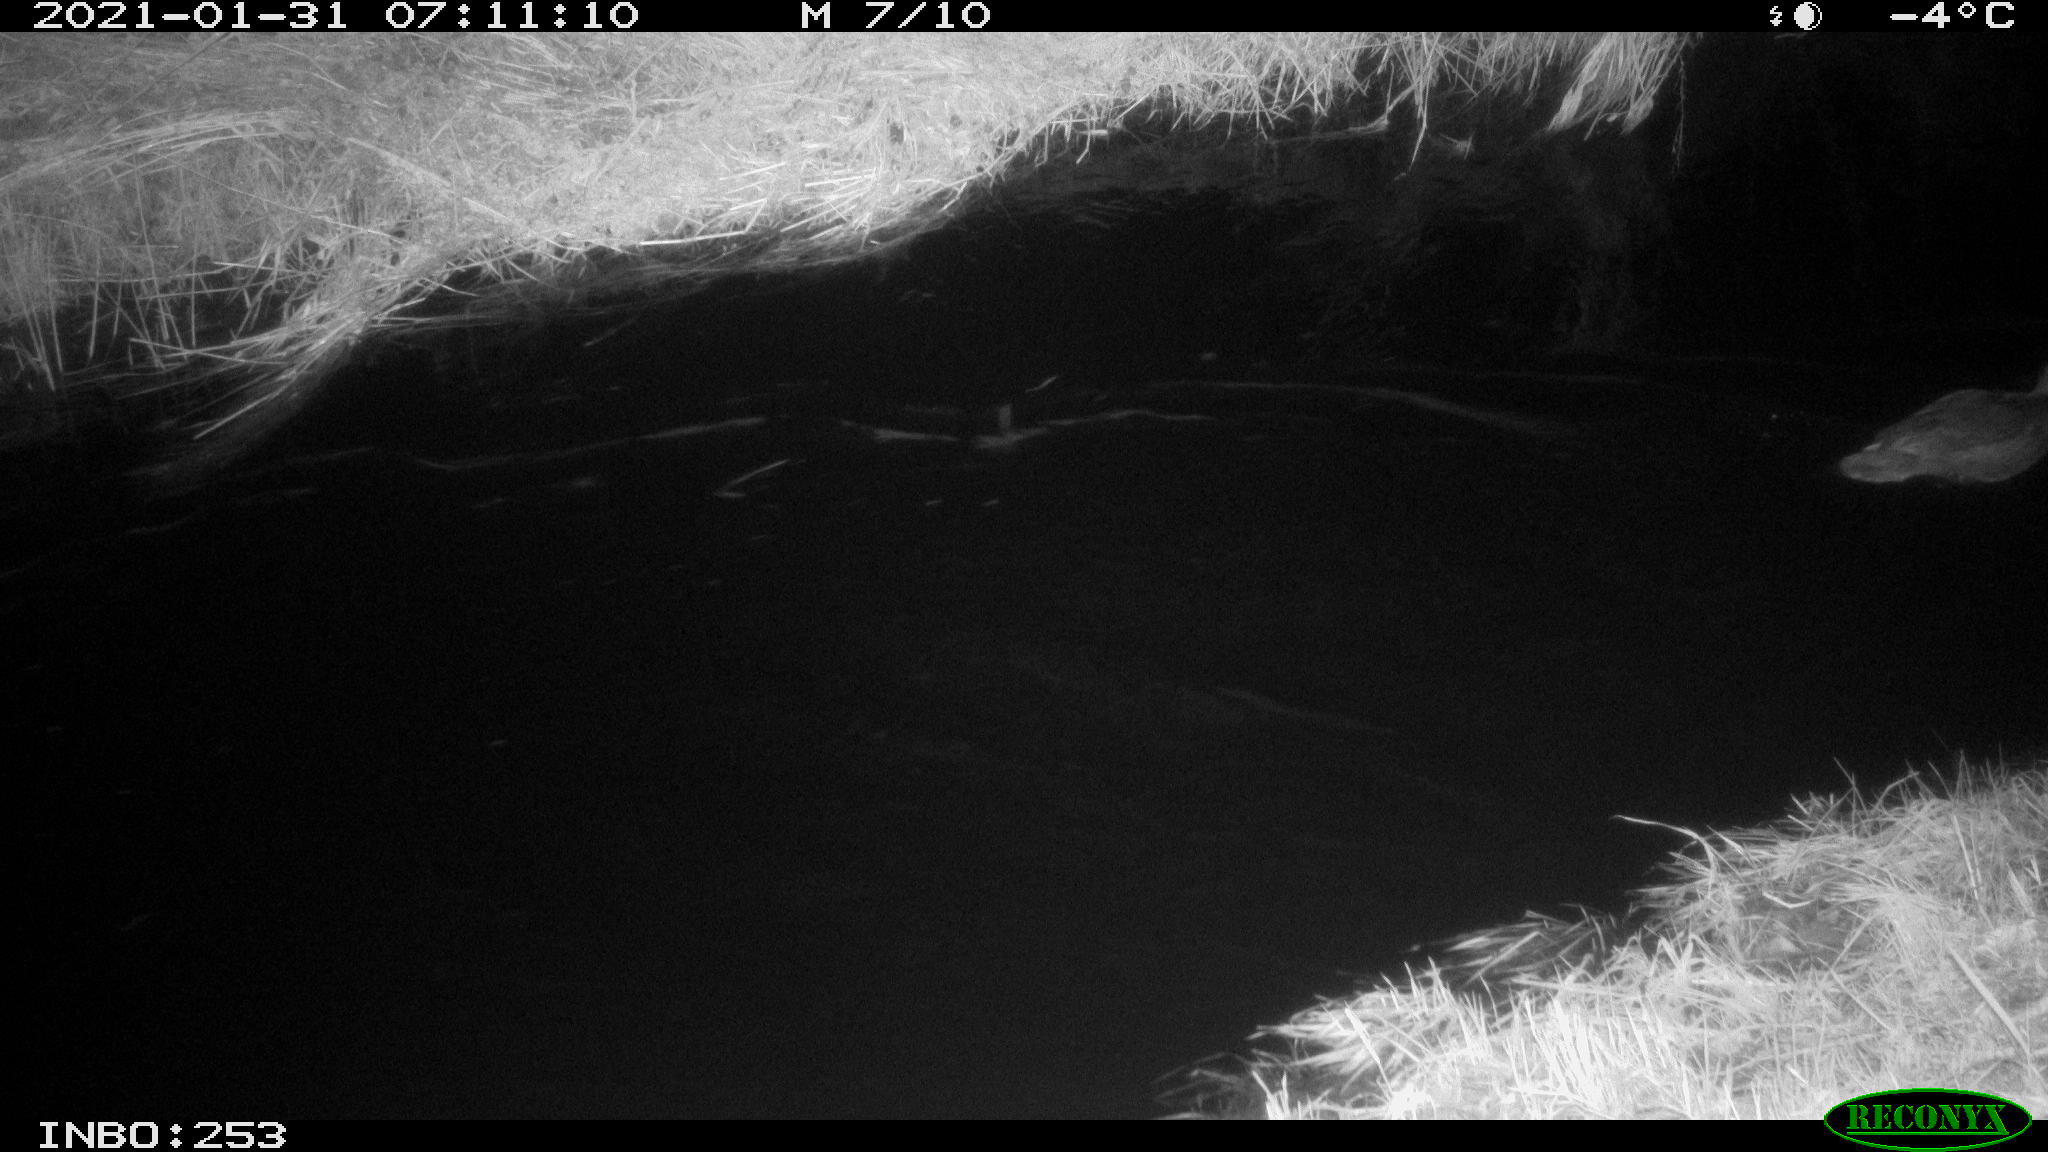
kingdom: Animalia
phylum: Chordata
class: Aves
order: Anseriformes
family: Anatidae
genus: Anas
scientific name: Anas platyrhynchos
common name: Mallard
